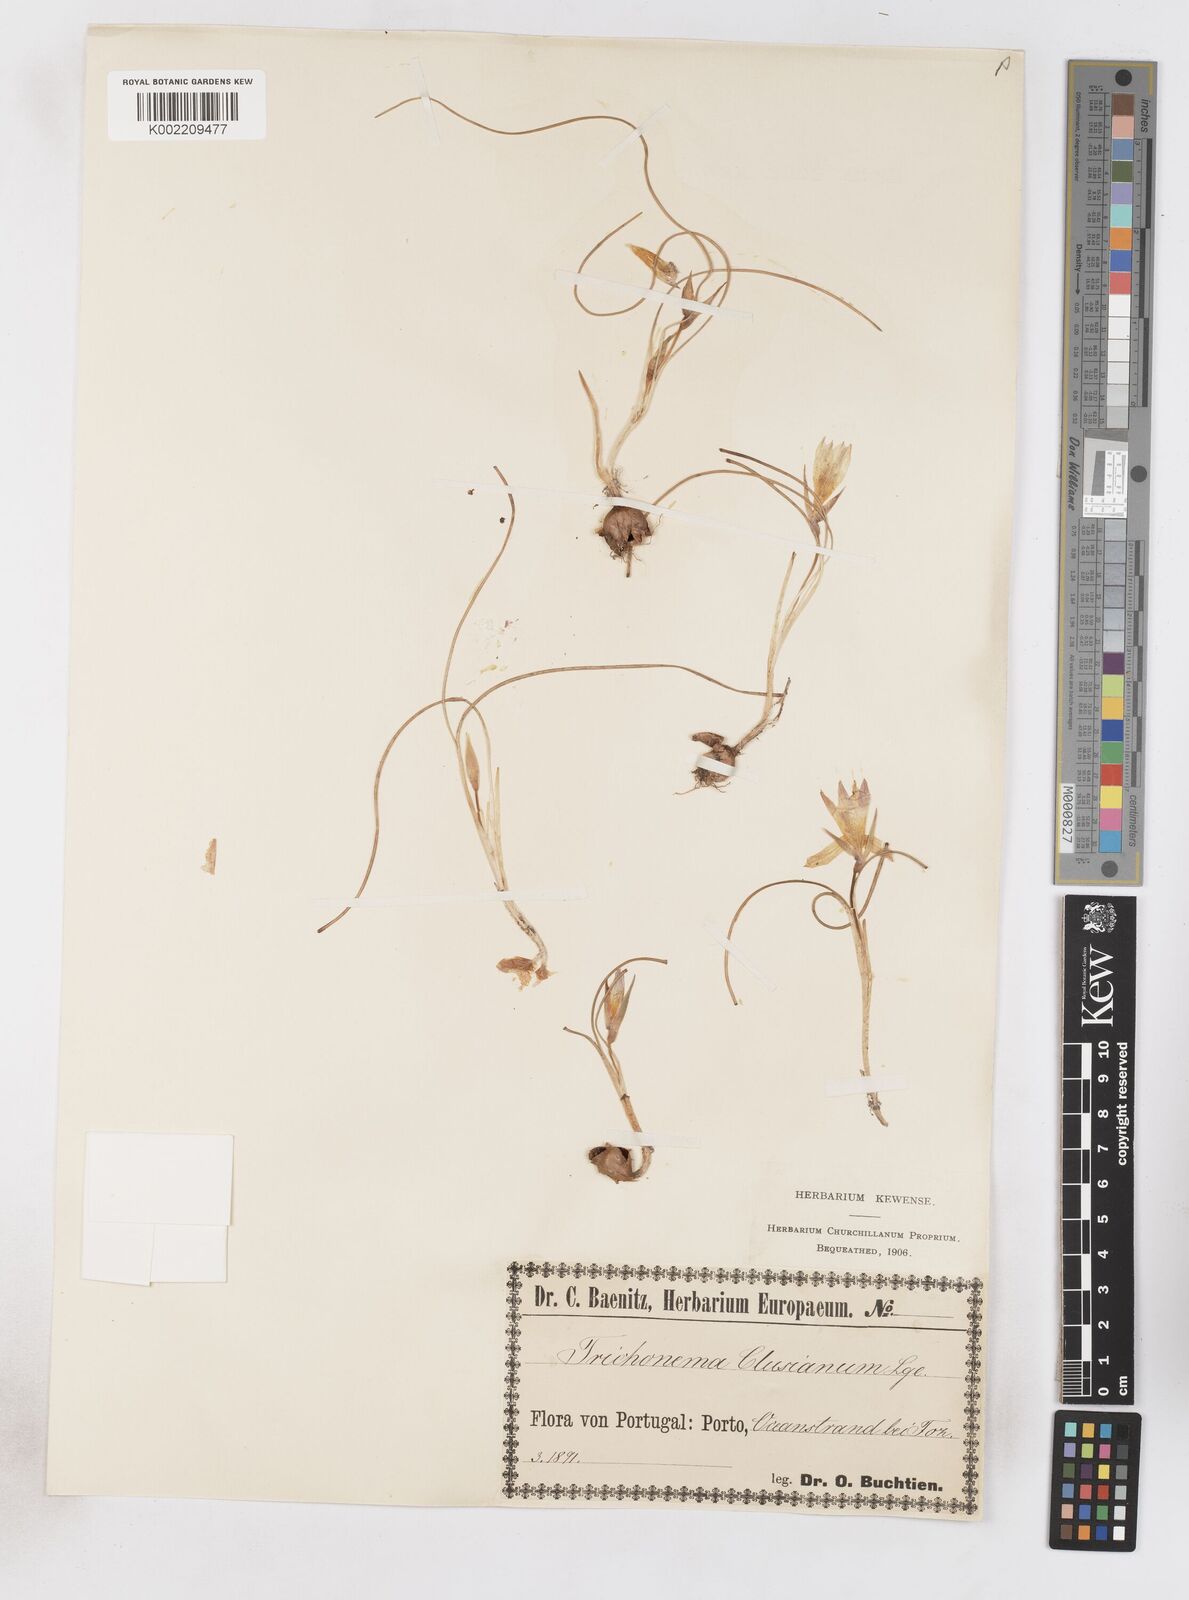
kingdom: Plantae
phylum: Tracheophyta
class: Liliopsida
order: Asparagales
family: Iridaceae
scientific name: Iridaceae
